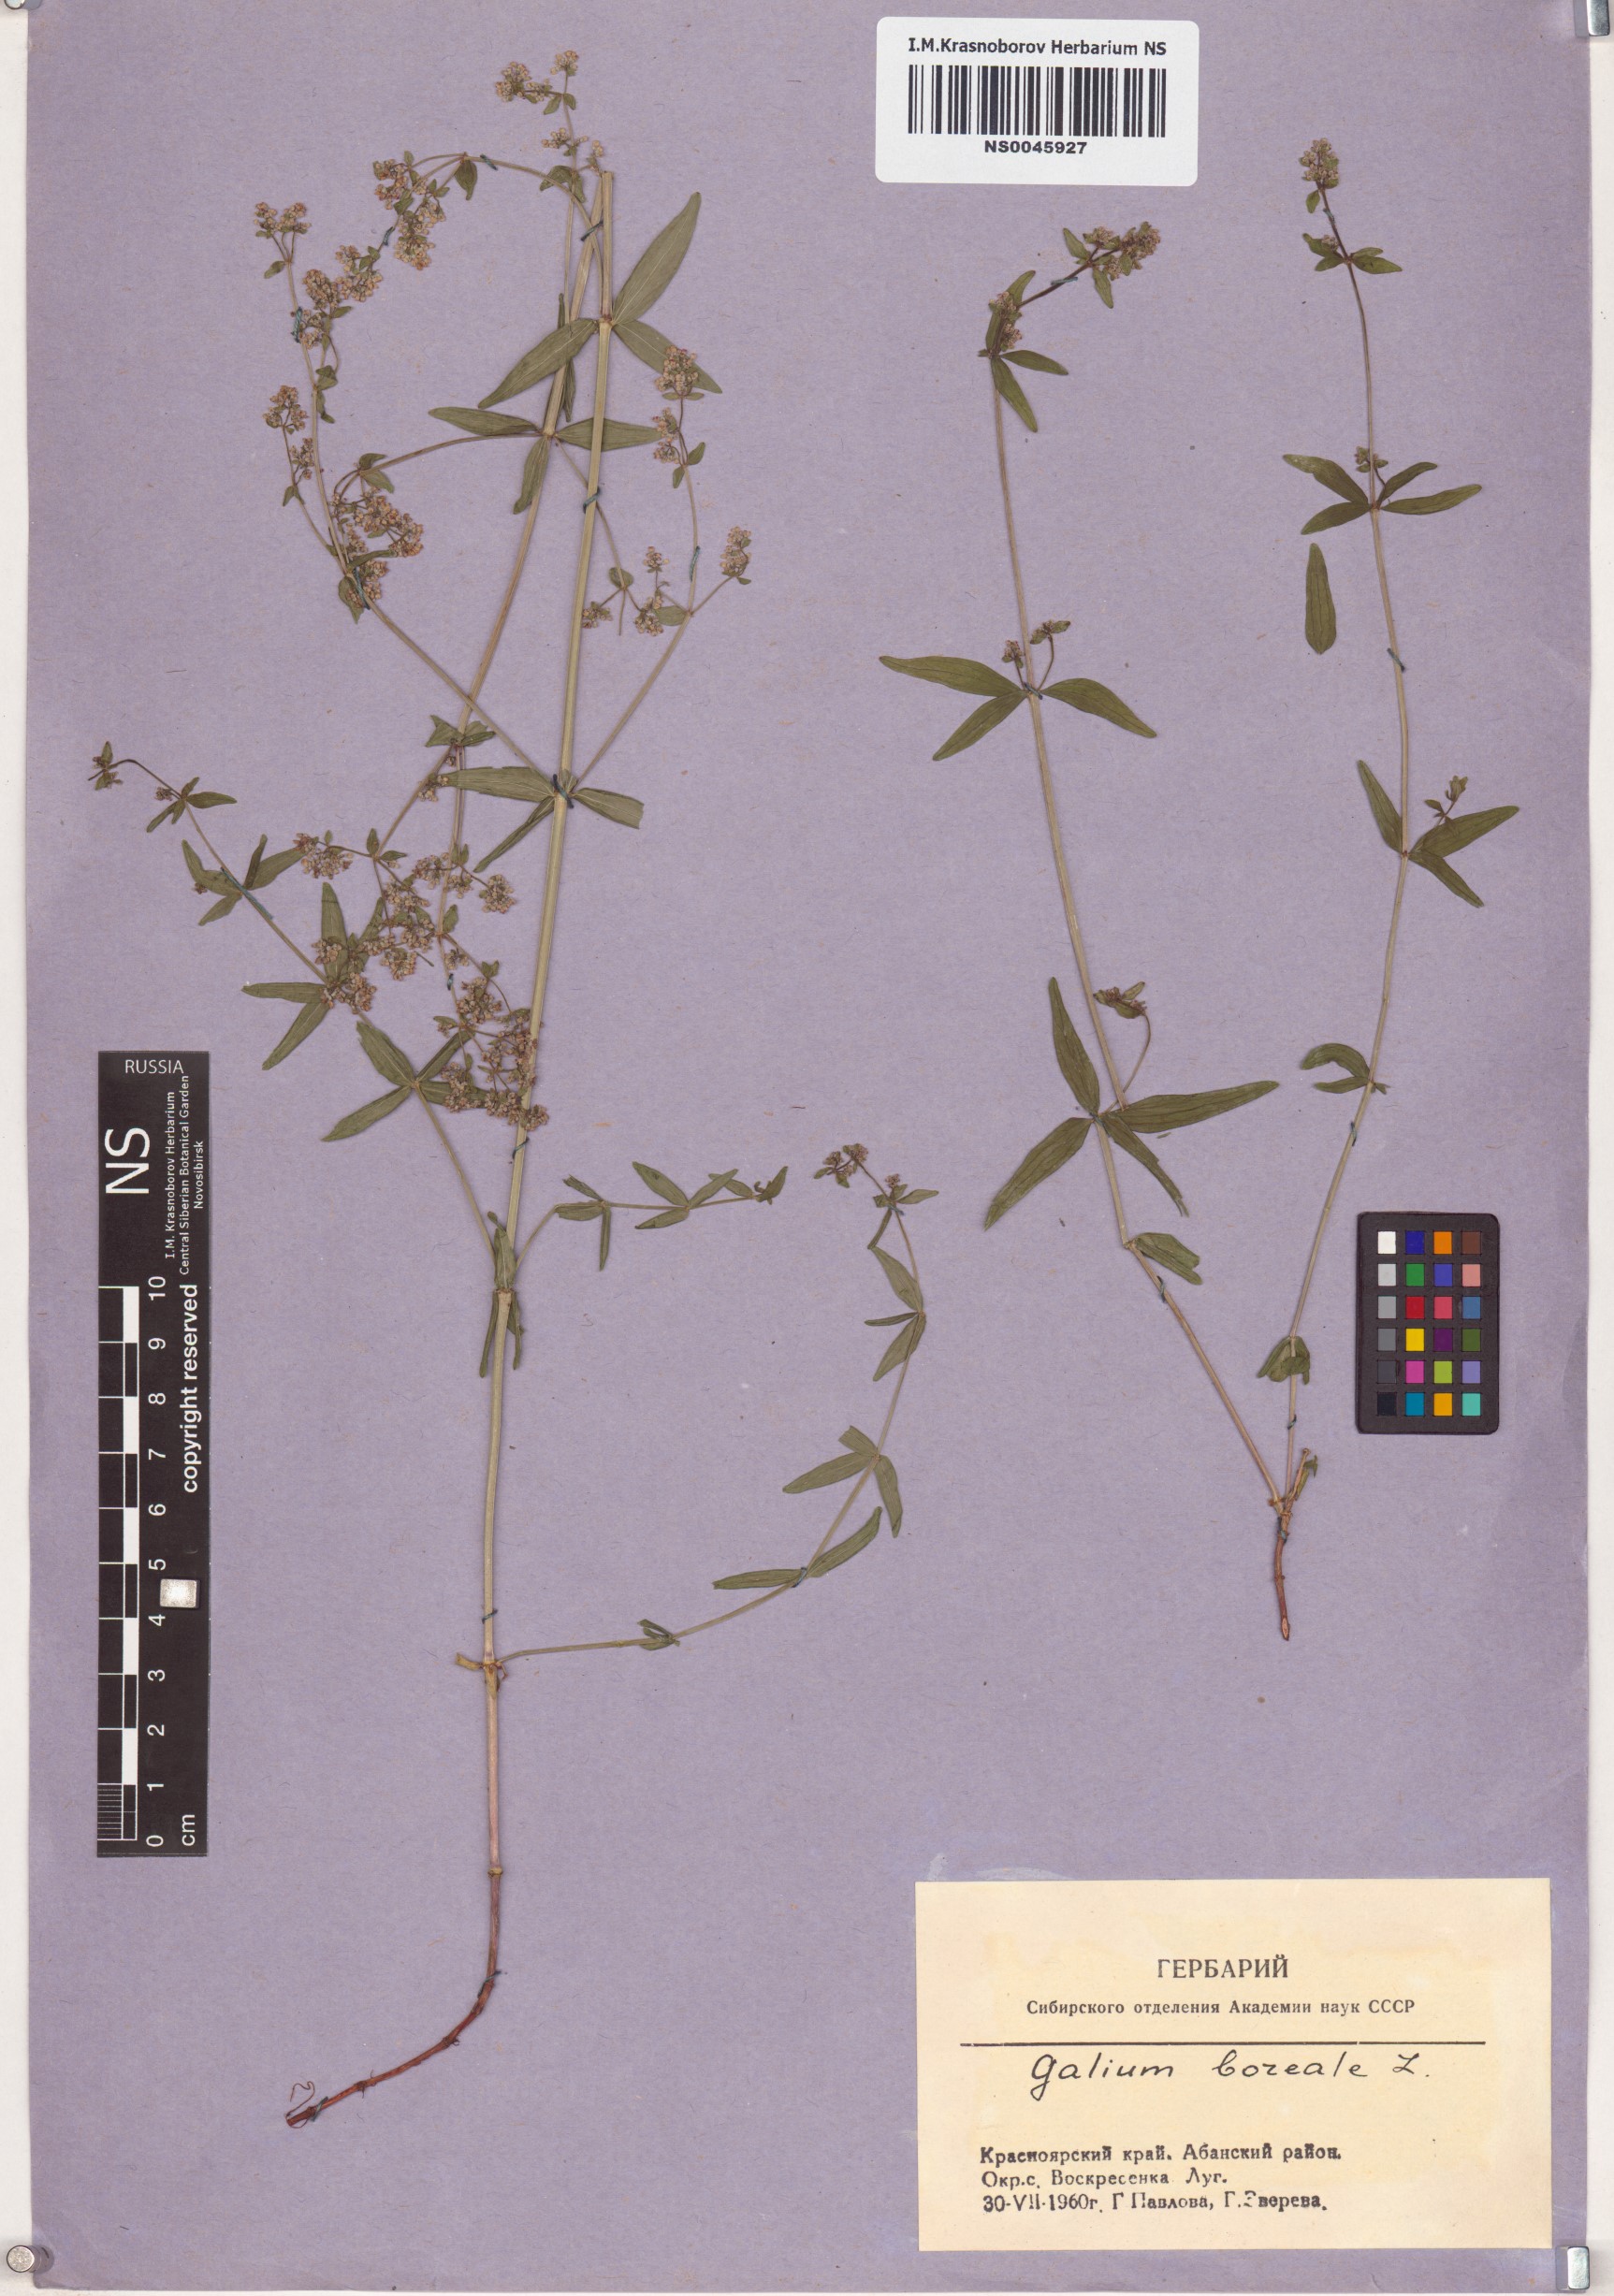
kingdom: Plantae
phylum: Tracheophyta
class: Magnoliopsida
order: Gentianales
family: Rubiaceae
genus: Galium
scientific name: Galium boreale
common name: Northern bedstraw
